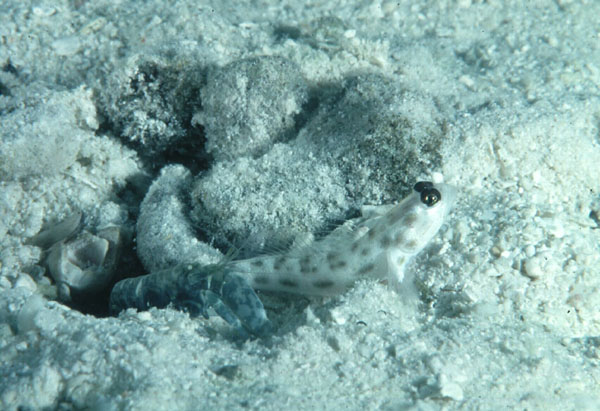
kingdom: Animalia
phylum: Chordata
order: Perciformes
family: Gobiidae
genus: Ctenogobiops
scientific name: Ctenogobiops feroculus
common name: Fierce shrimpgoby
